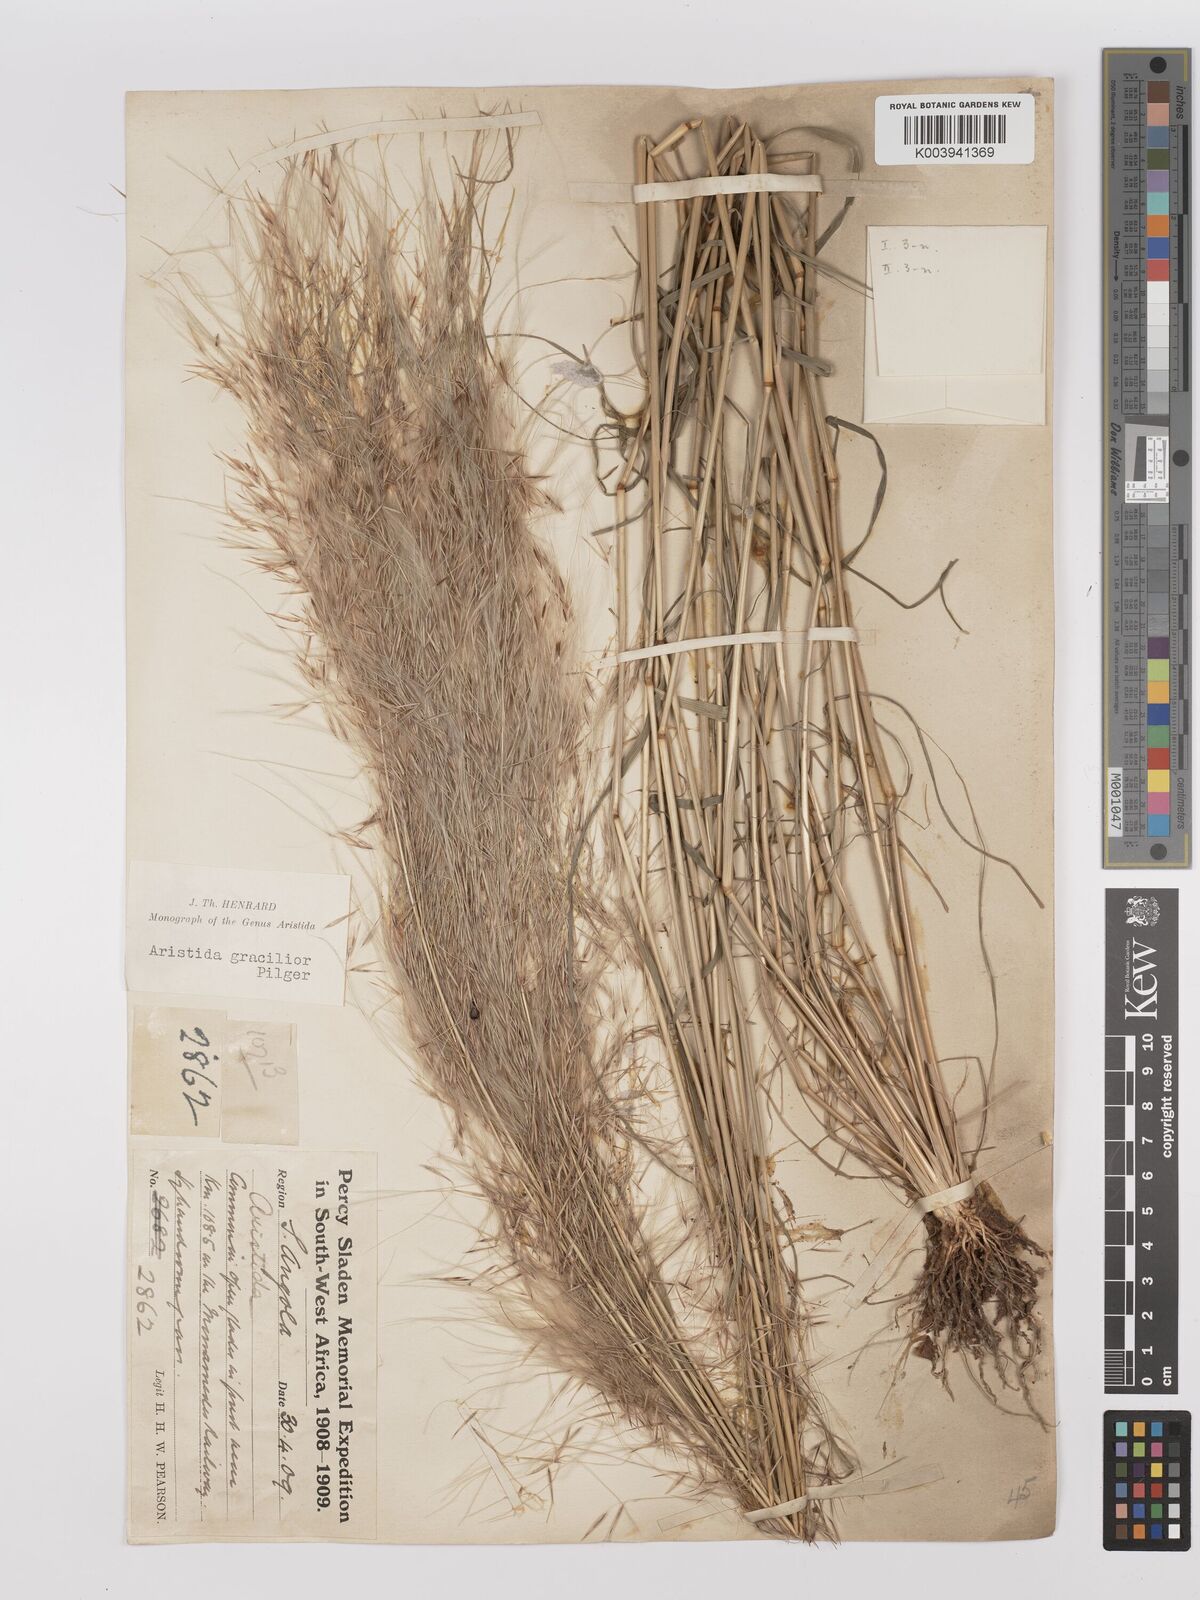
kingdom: Plantae
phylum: Tracheophyta
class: Liliopsida
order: Poales
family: Poaceae
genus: Stipagrostis
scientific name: Stipagrostis hirtigluma
